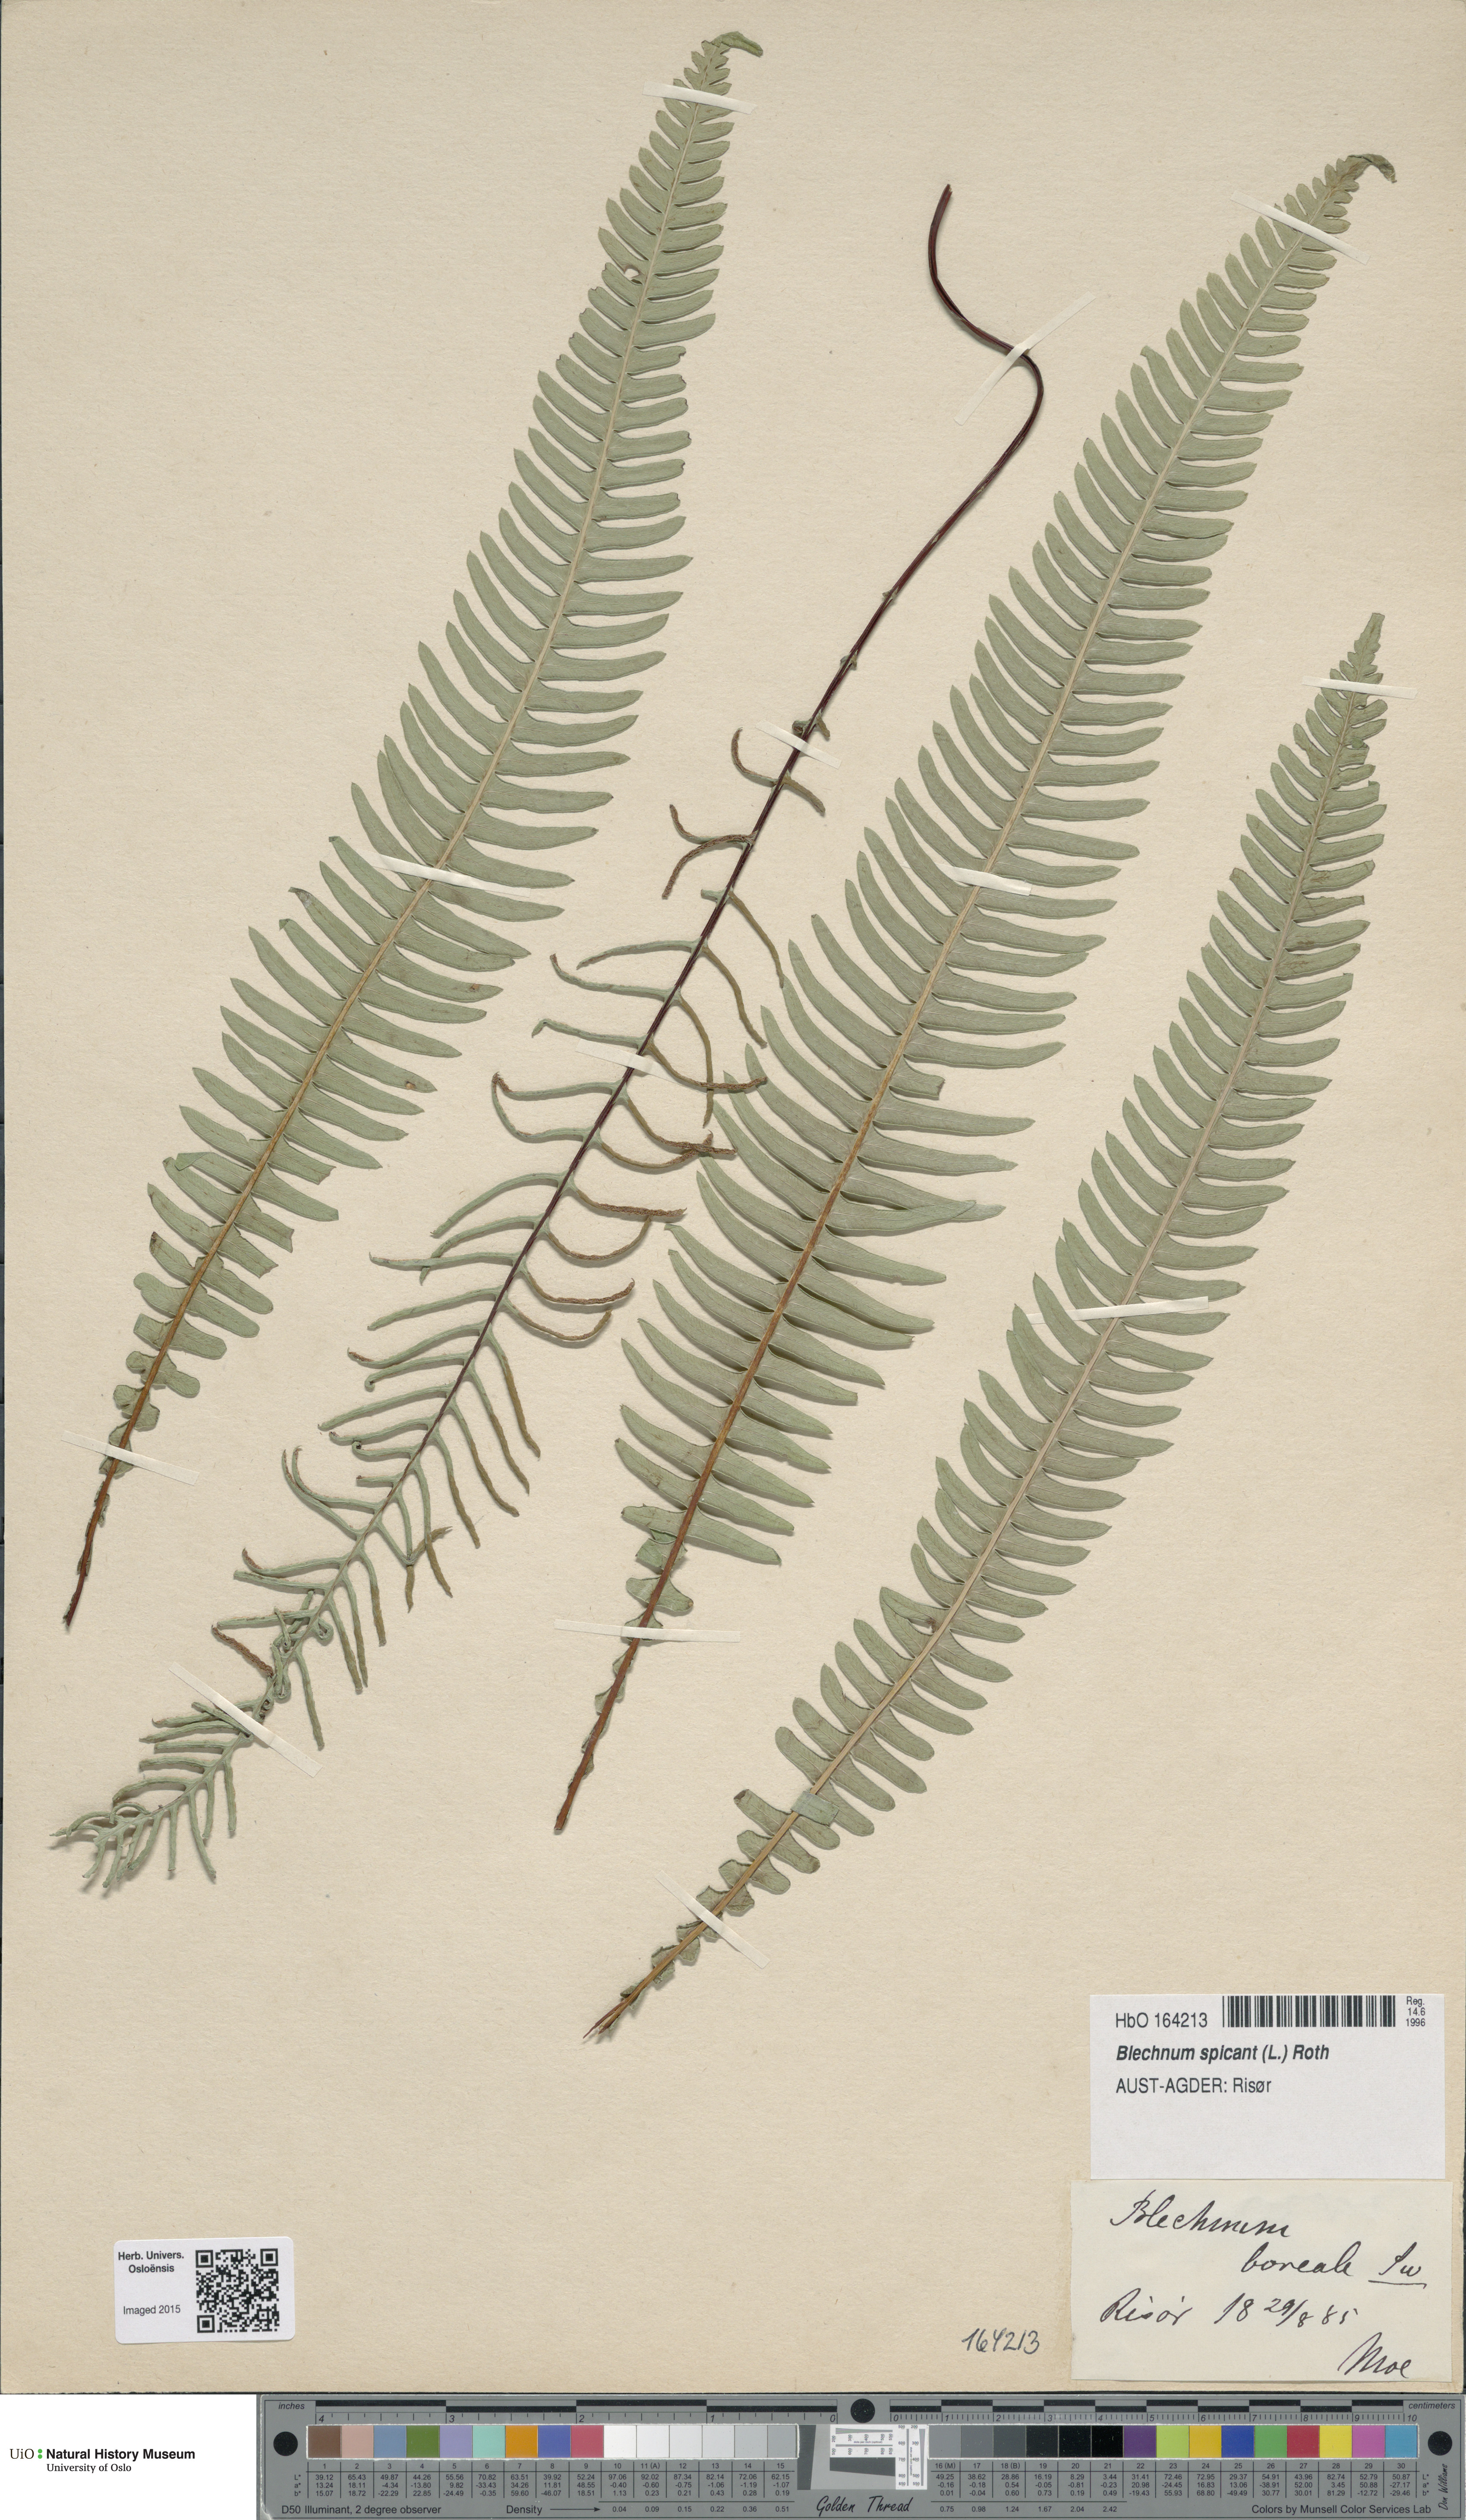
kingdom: Plantae
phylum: Tracheophyta
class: Polypodiopsida
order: Polypodiales
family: Blechnaceae
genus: Struthiopteris
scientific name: Struthiopteris spicant
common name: Deer fern
